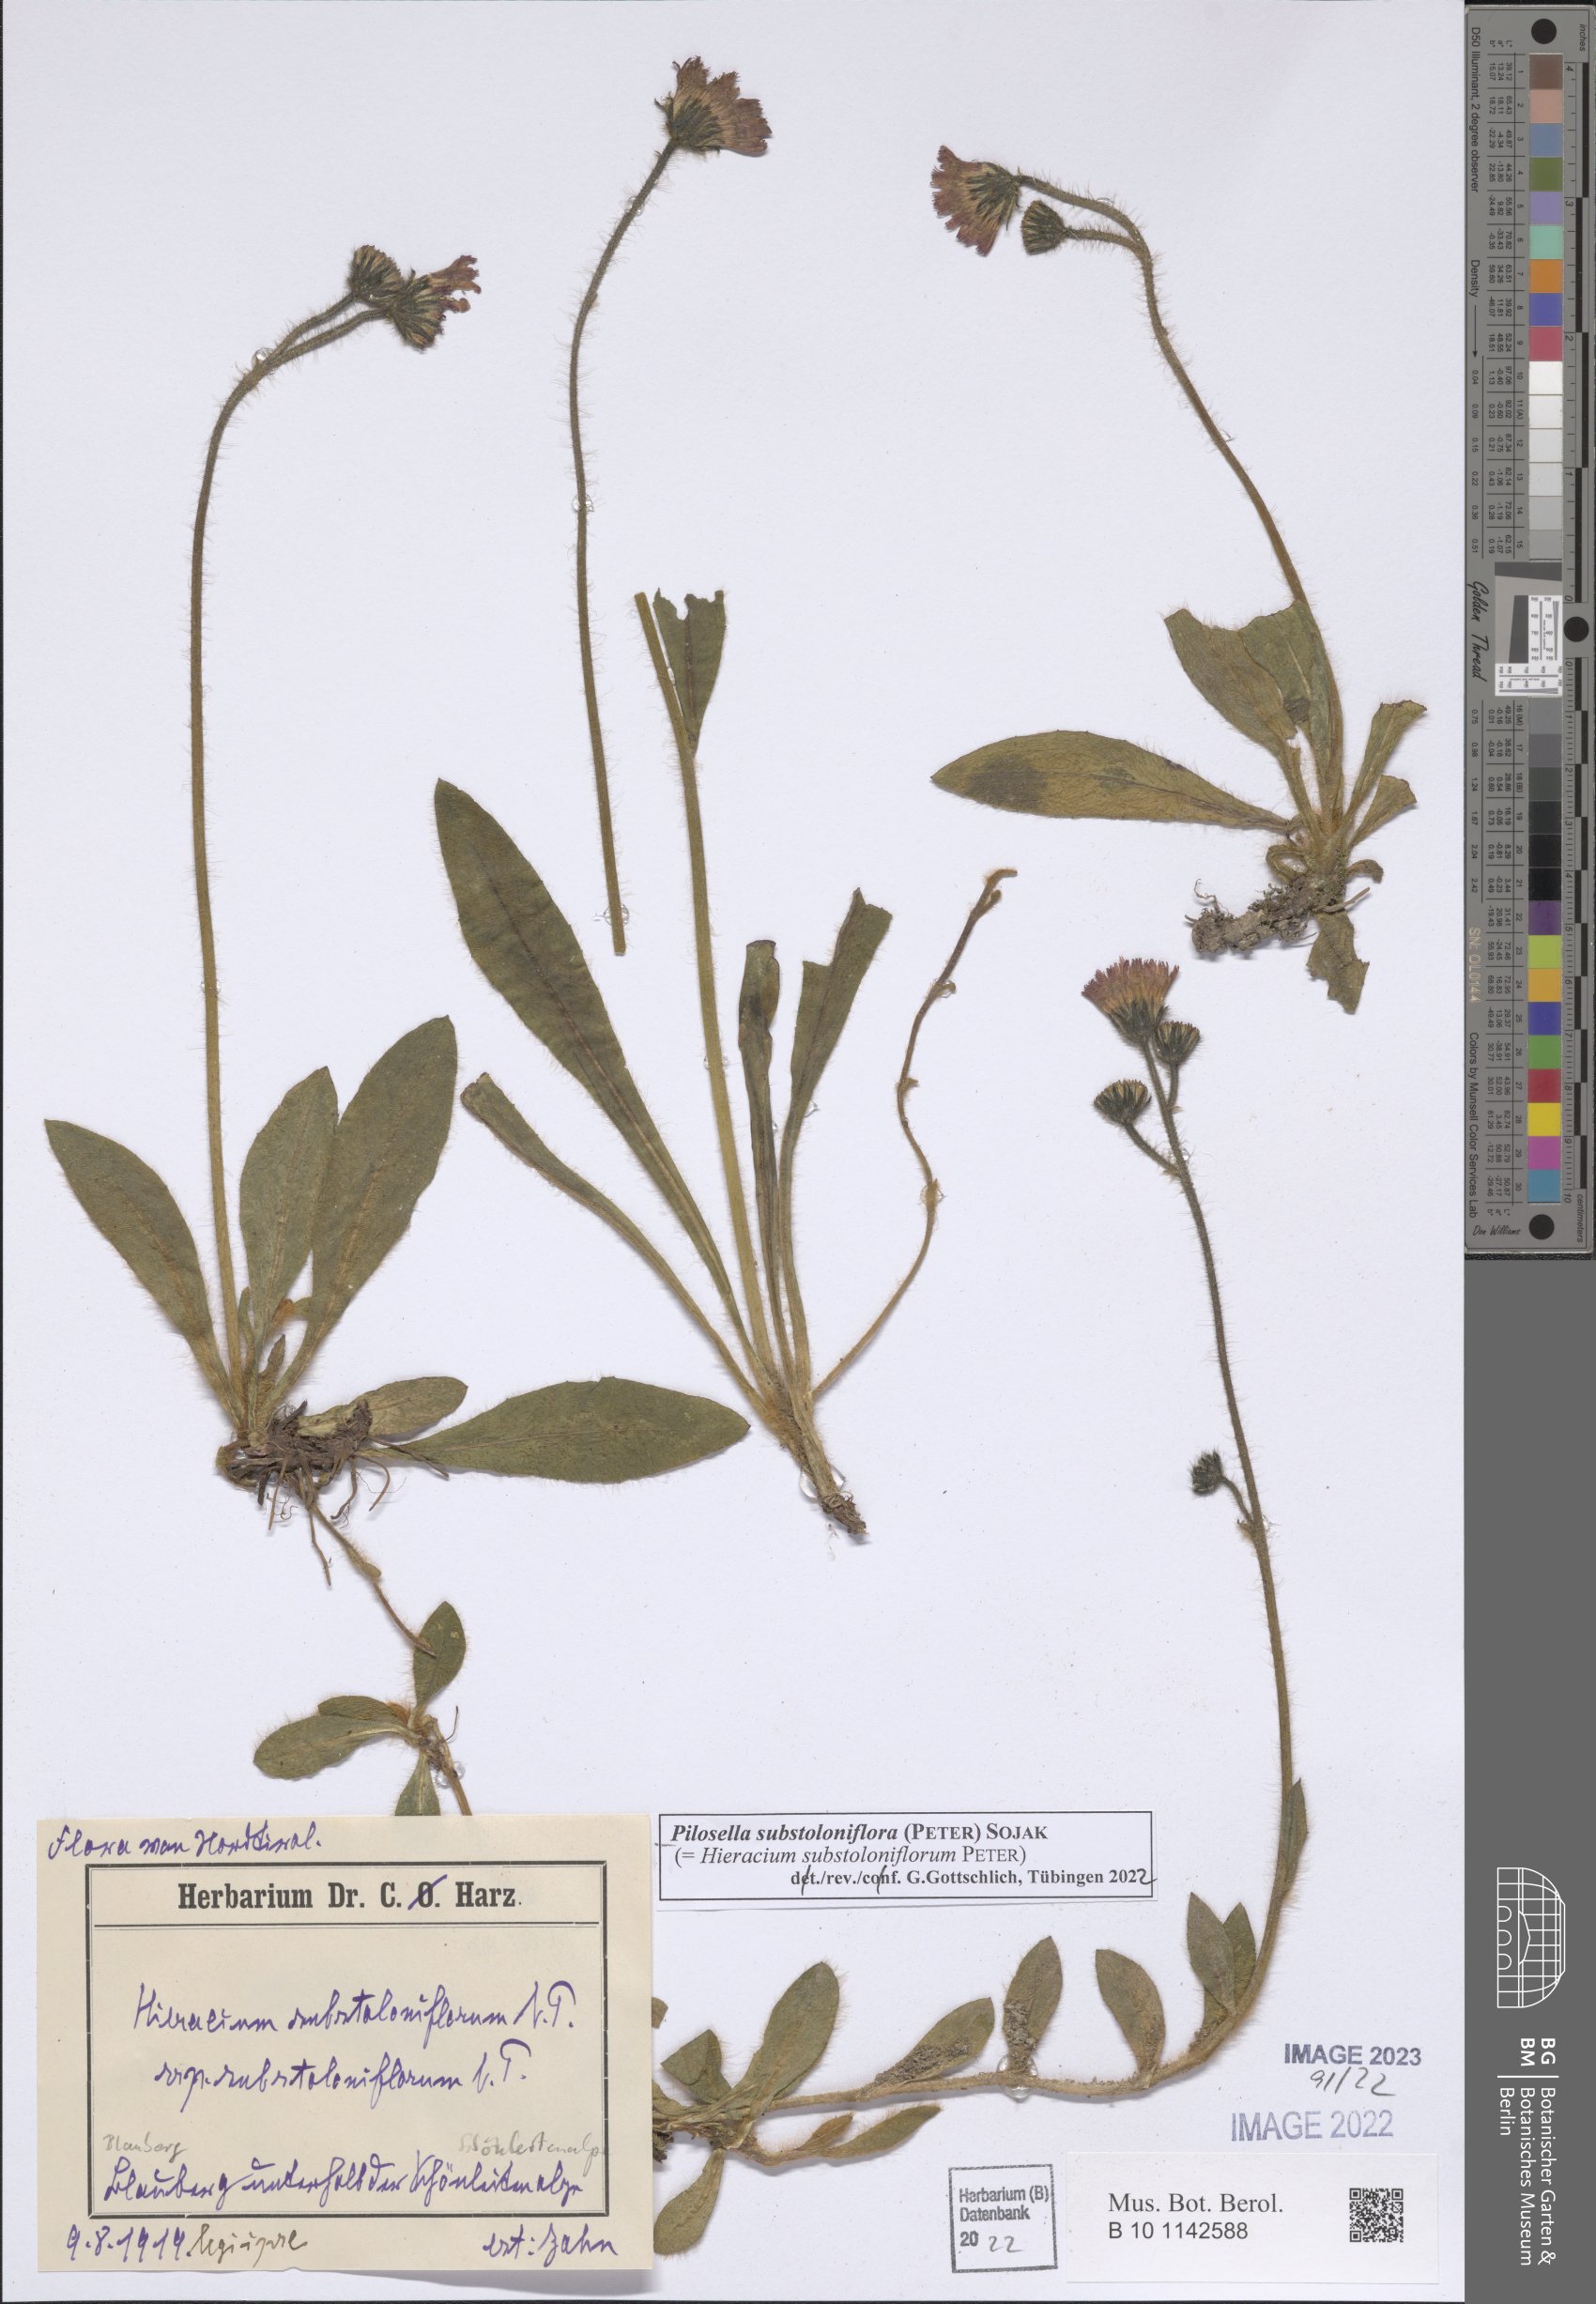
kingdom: Plantae
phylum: Tracheophyta
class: Magnoliopsida
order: Asterales
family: Asteraceae
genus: Pilosella
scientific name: Pilosella substoloniflora
